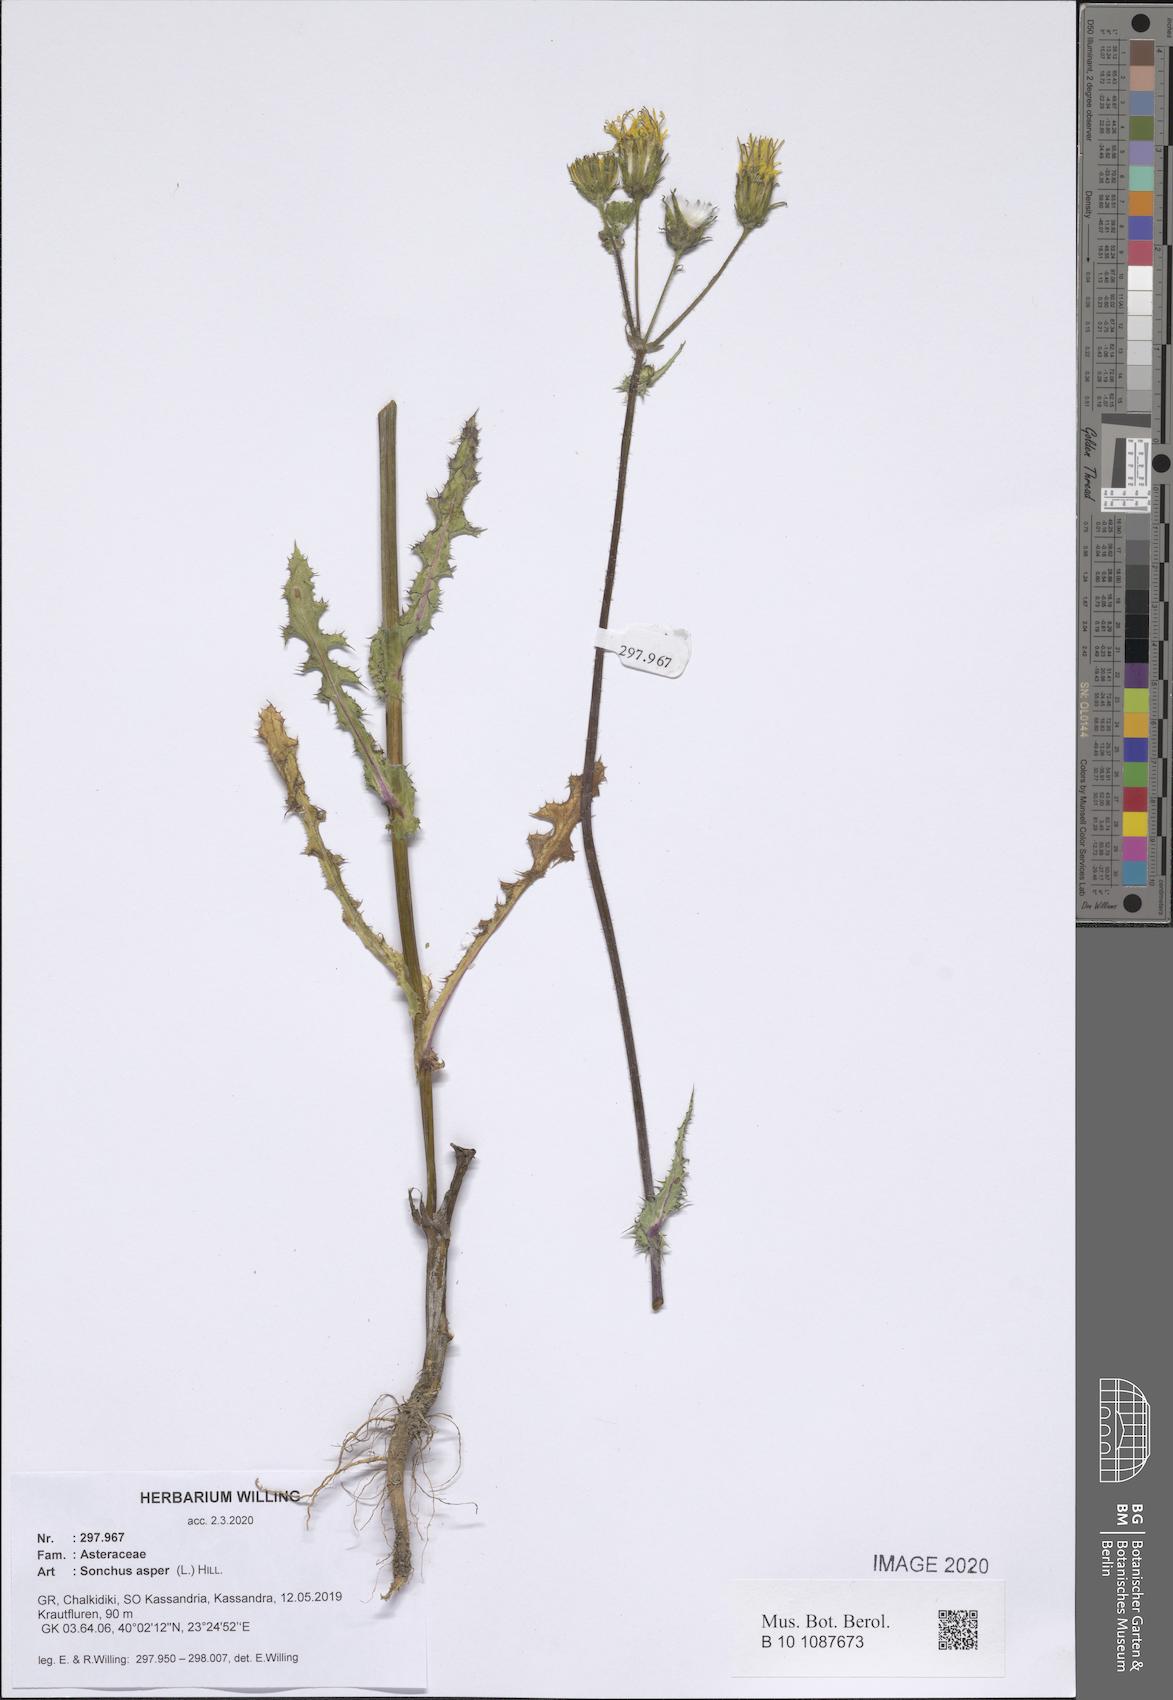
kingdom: Plantae
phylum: Tracheophyta
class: Magnoliopsida
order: Asterales
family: Asteraceae
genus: Sonchus
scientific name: Sonchus asper
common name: Prickly sow-thistle
